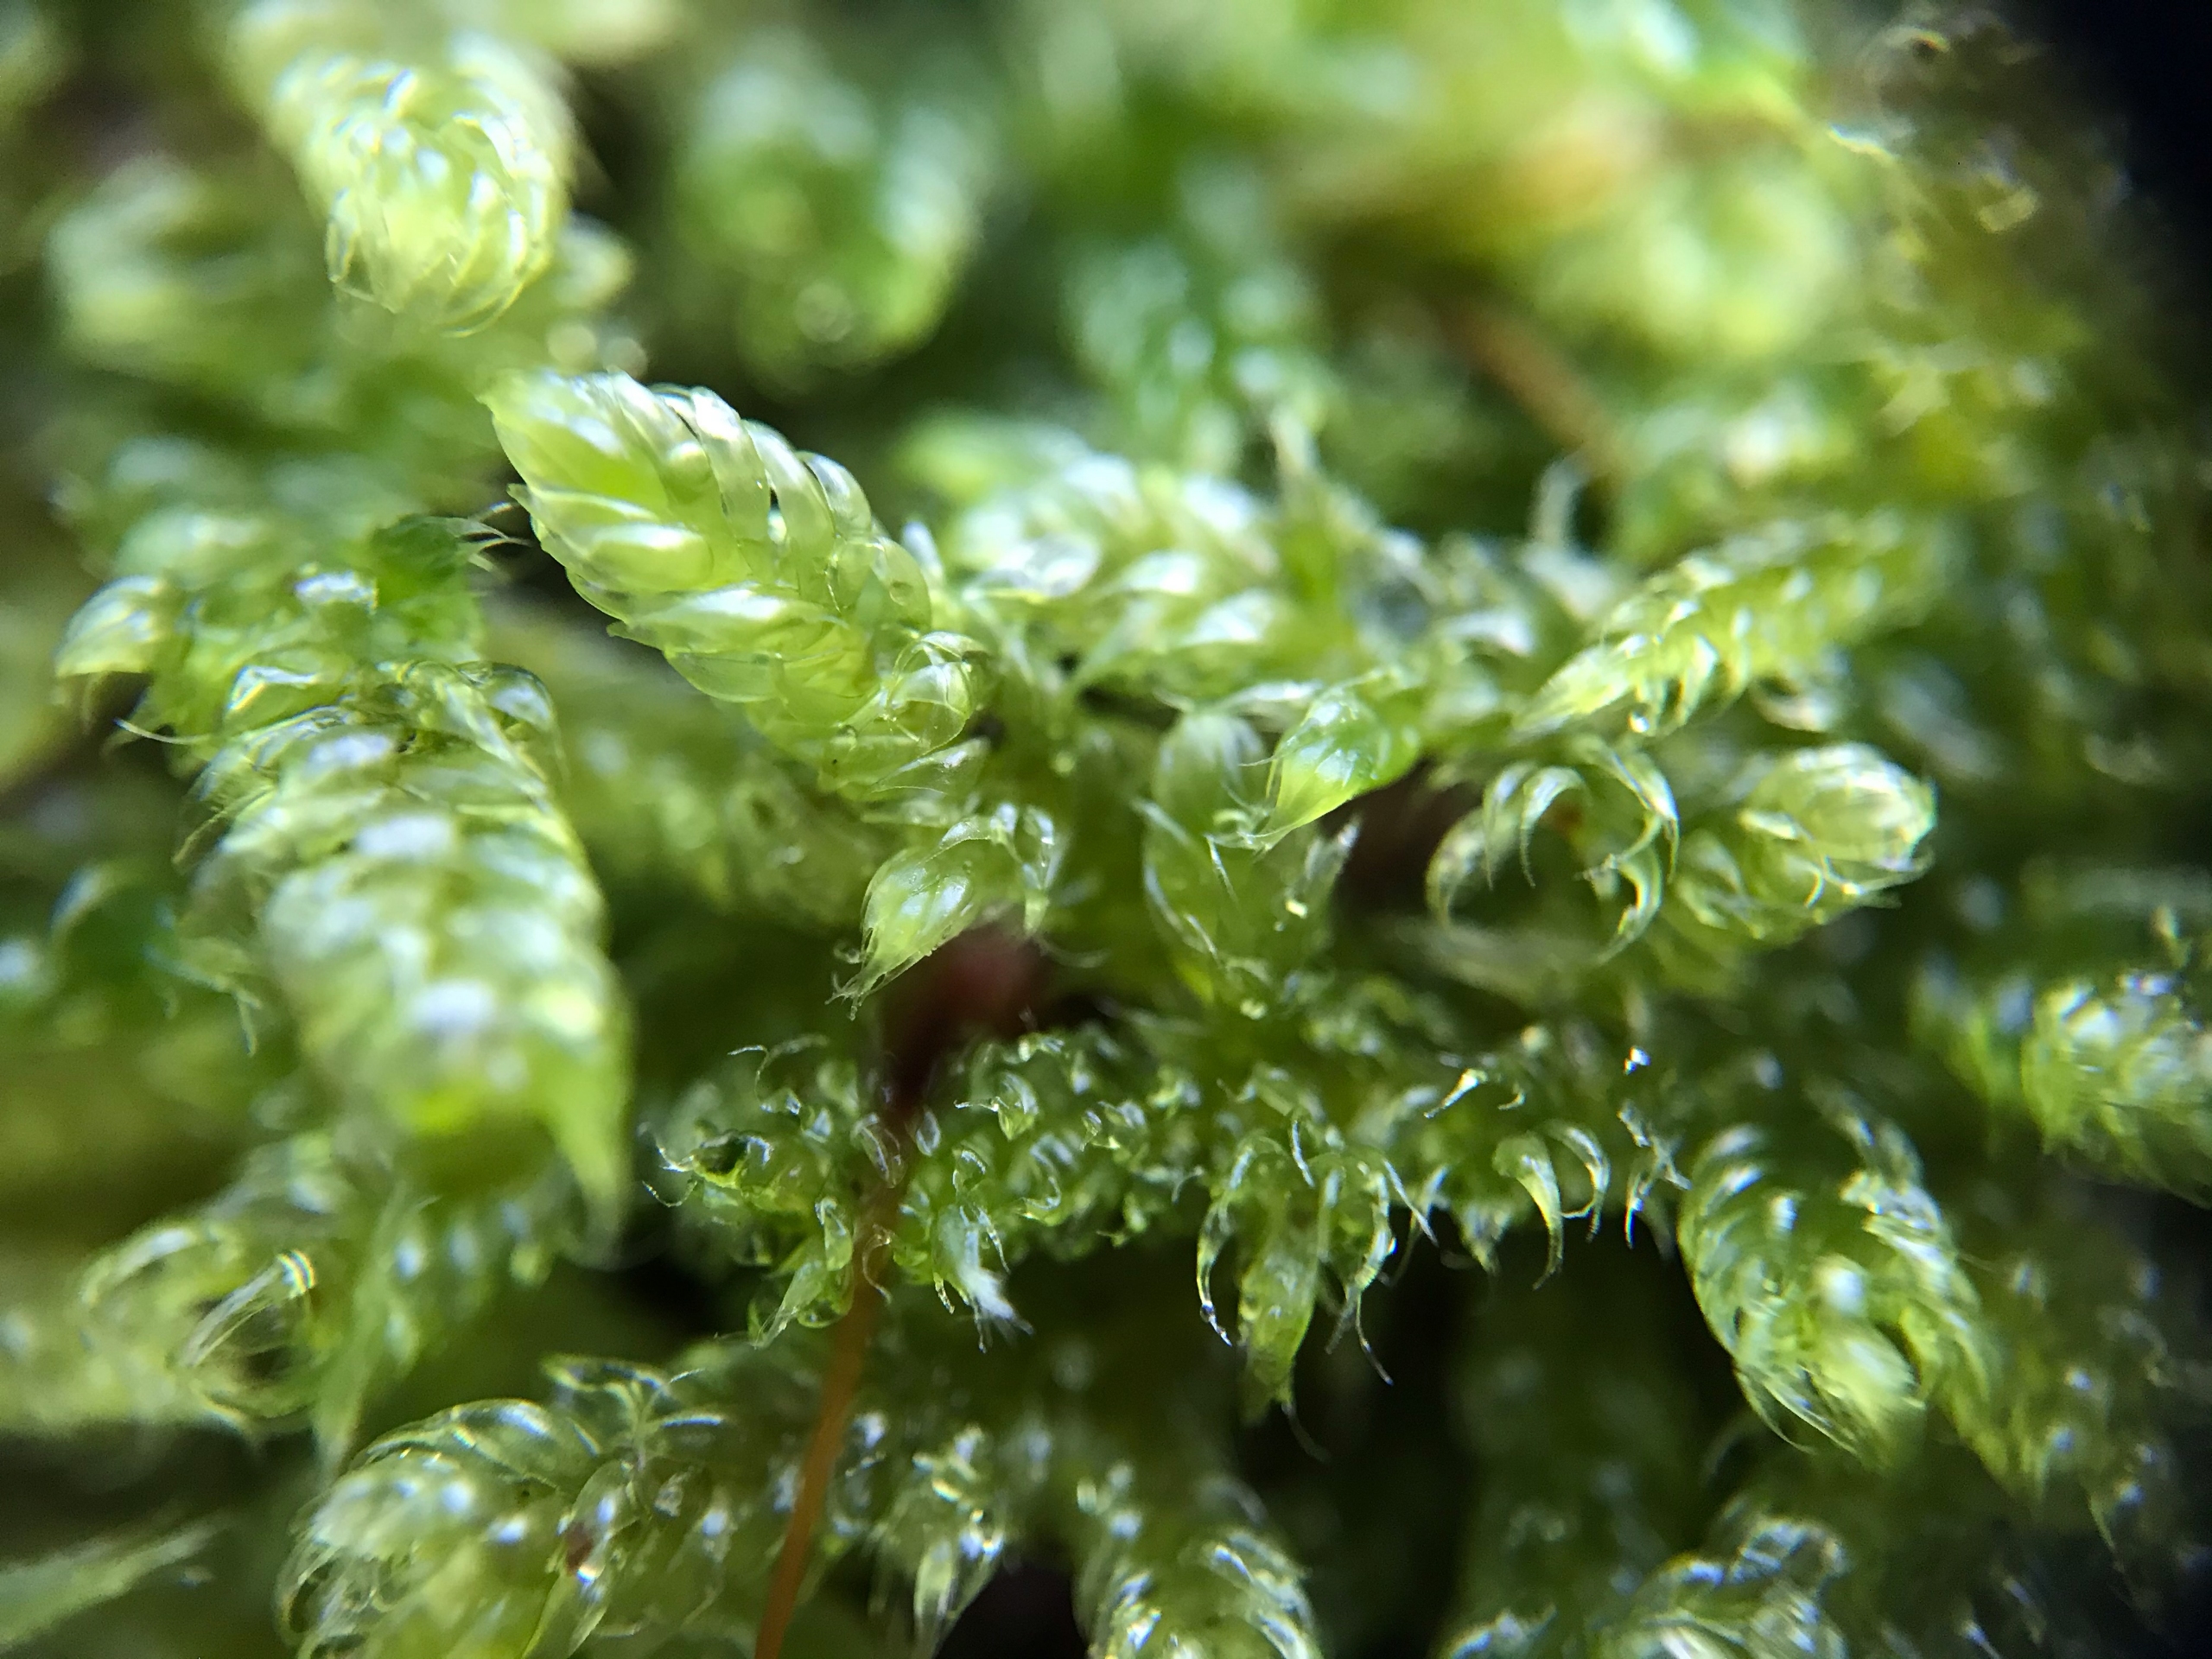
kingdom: Plantae
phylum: Bryophyta
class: Bryopsida
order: Hypnales
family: Hypnaceae
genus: Hypnum
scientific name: Hypnum cupressiforme
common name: Almindelig cypresmos
